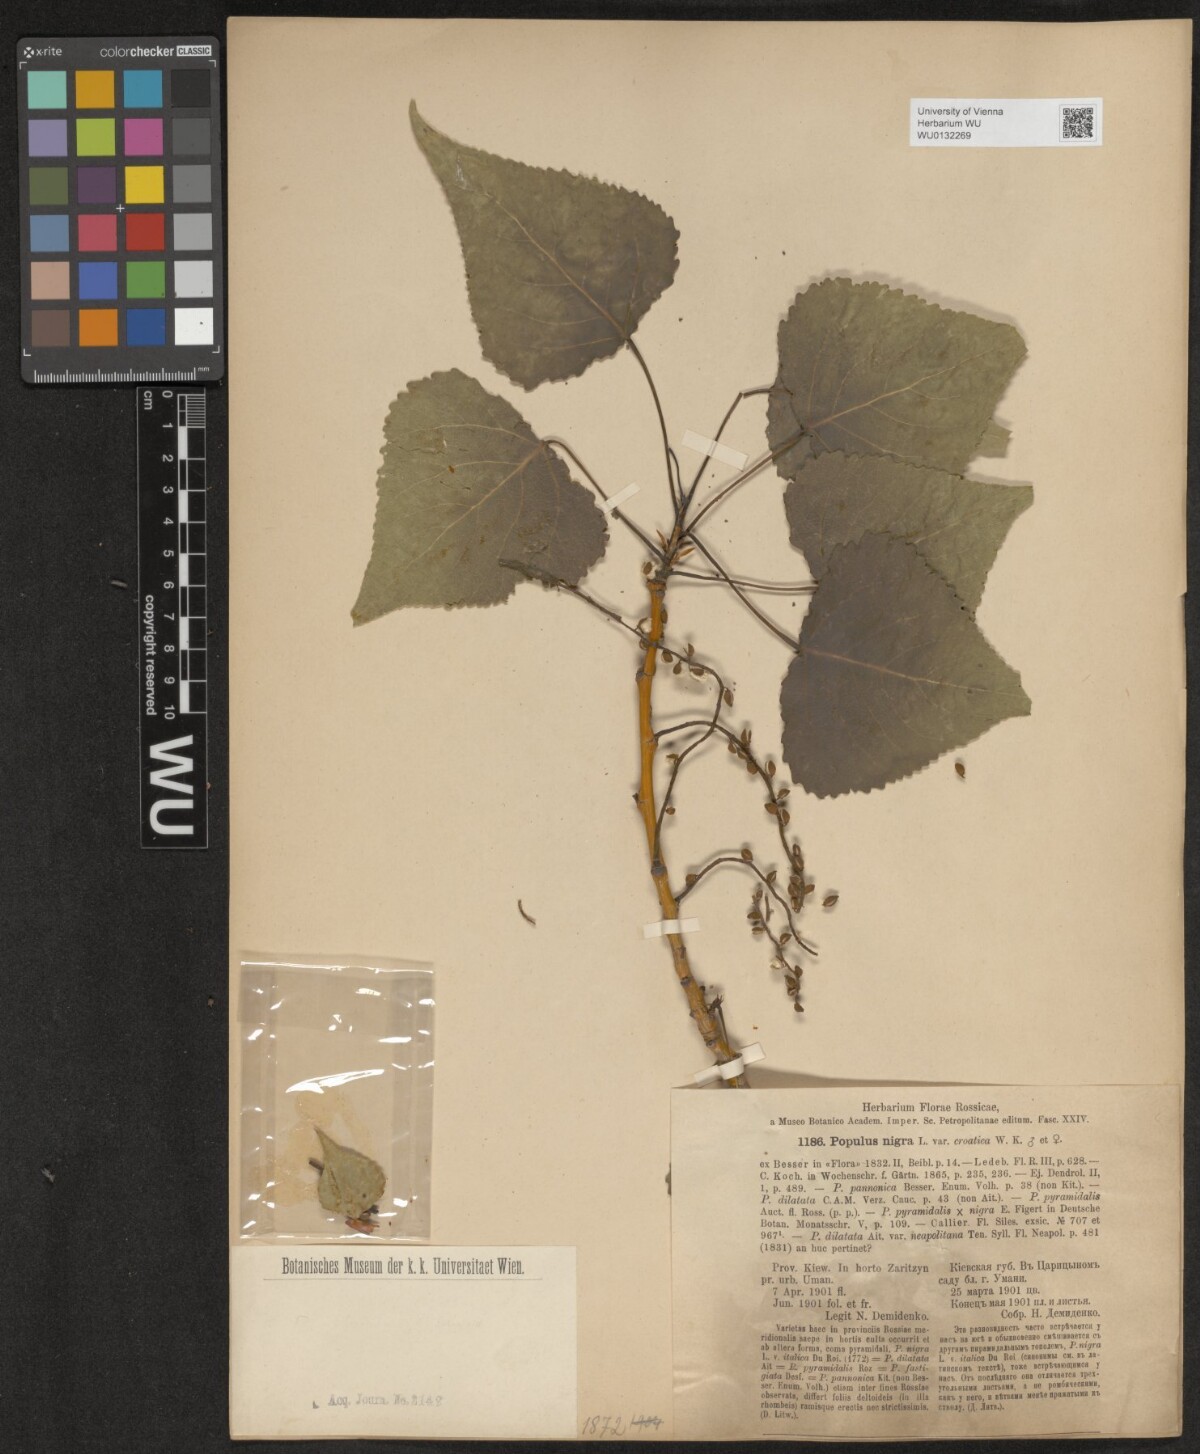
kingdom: Plantae
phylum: Tracheophyta
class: Magnoliopsida
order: Malpighiales
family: Salicaceae
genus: Populus
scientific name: Populus nigra
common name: Black poplar
